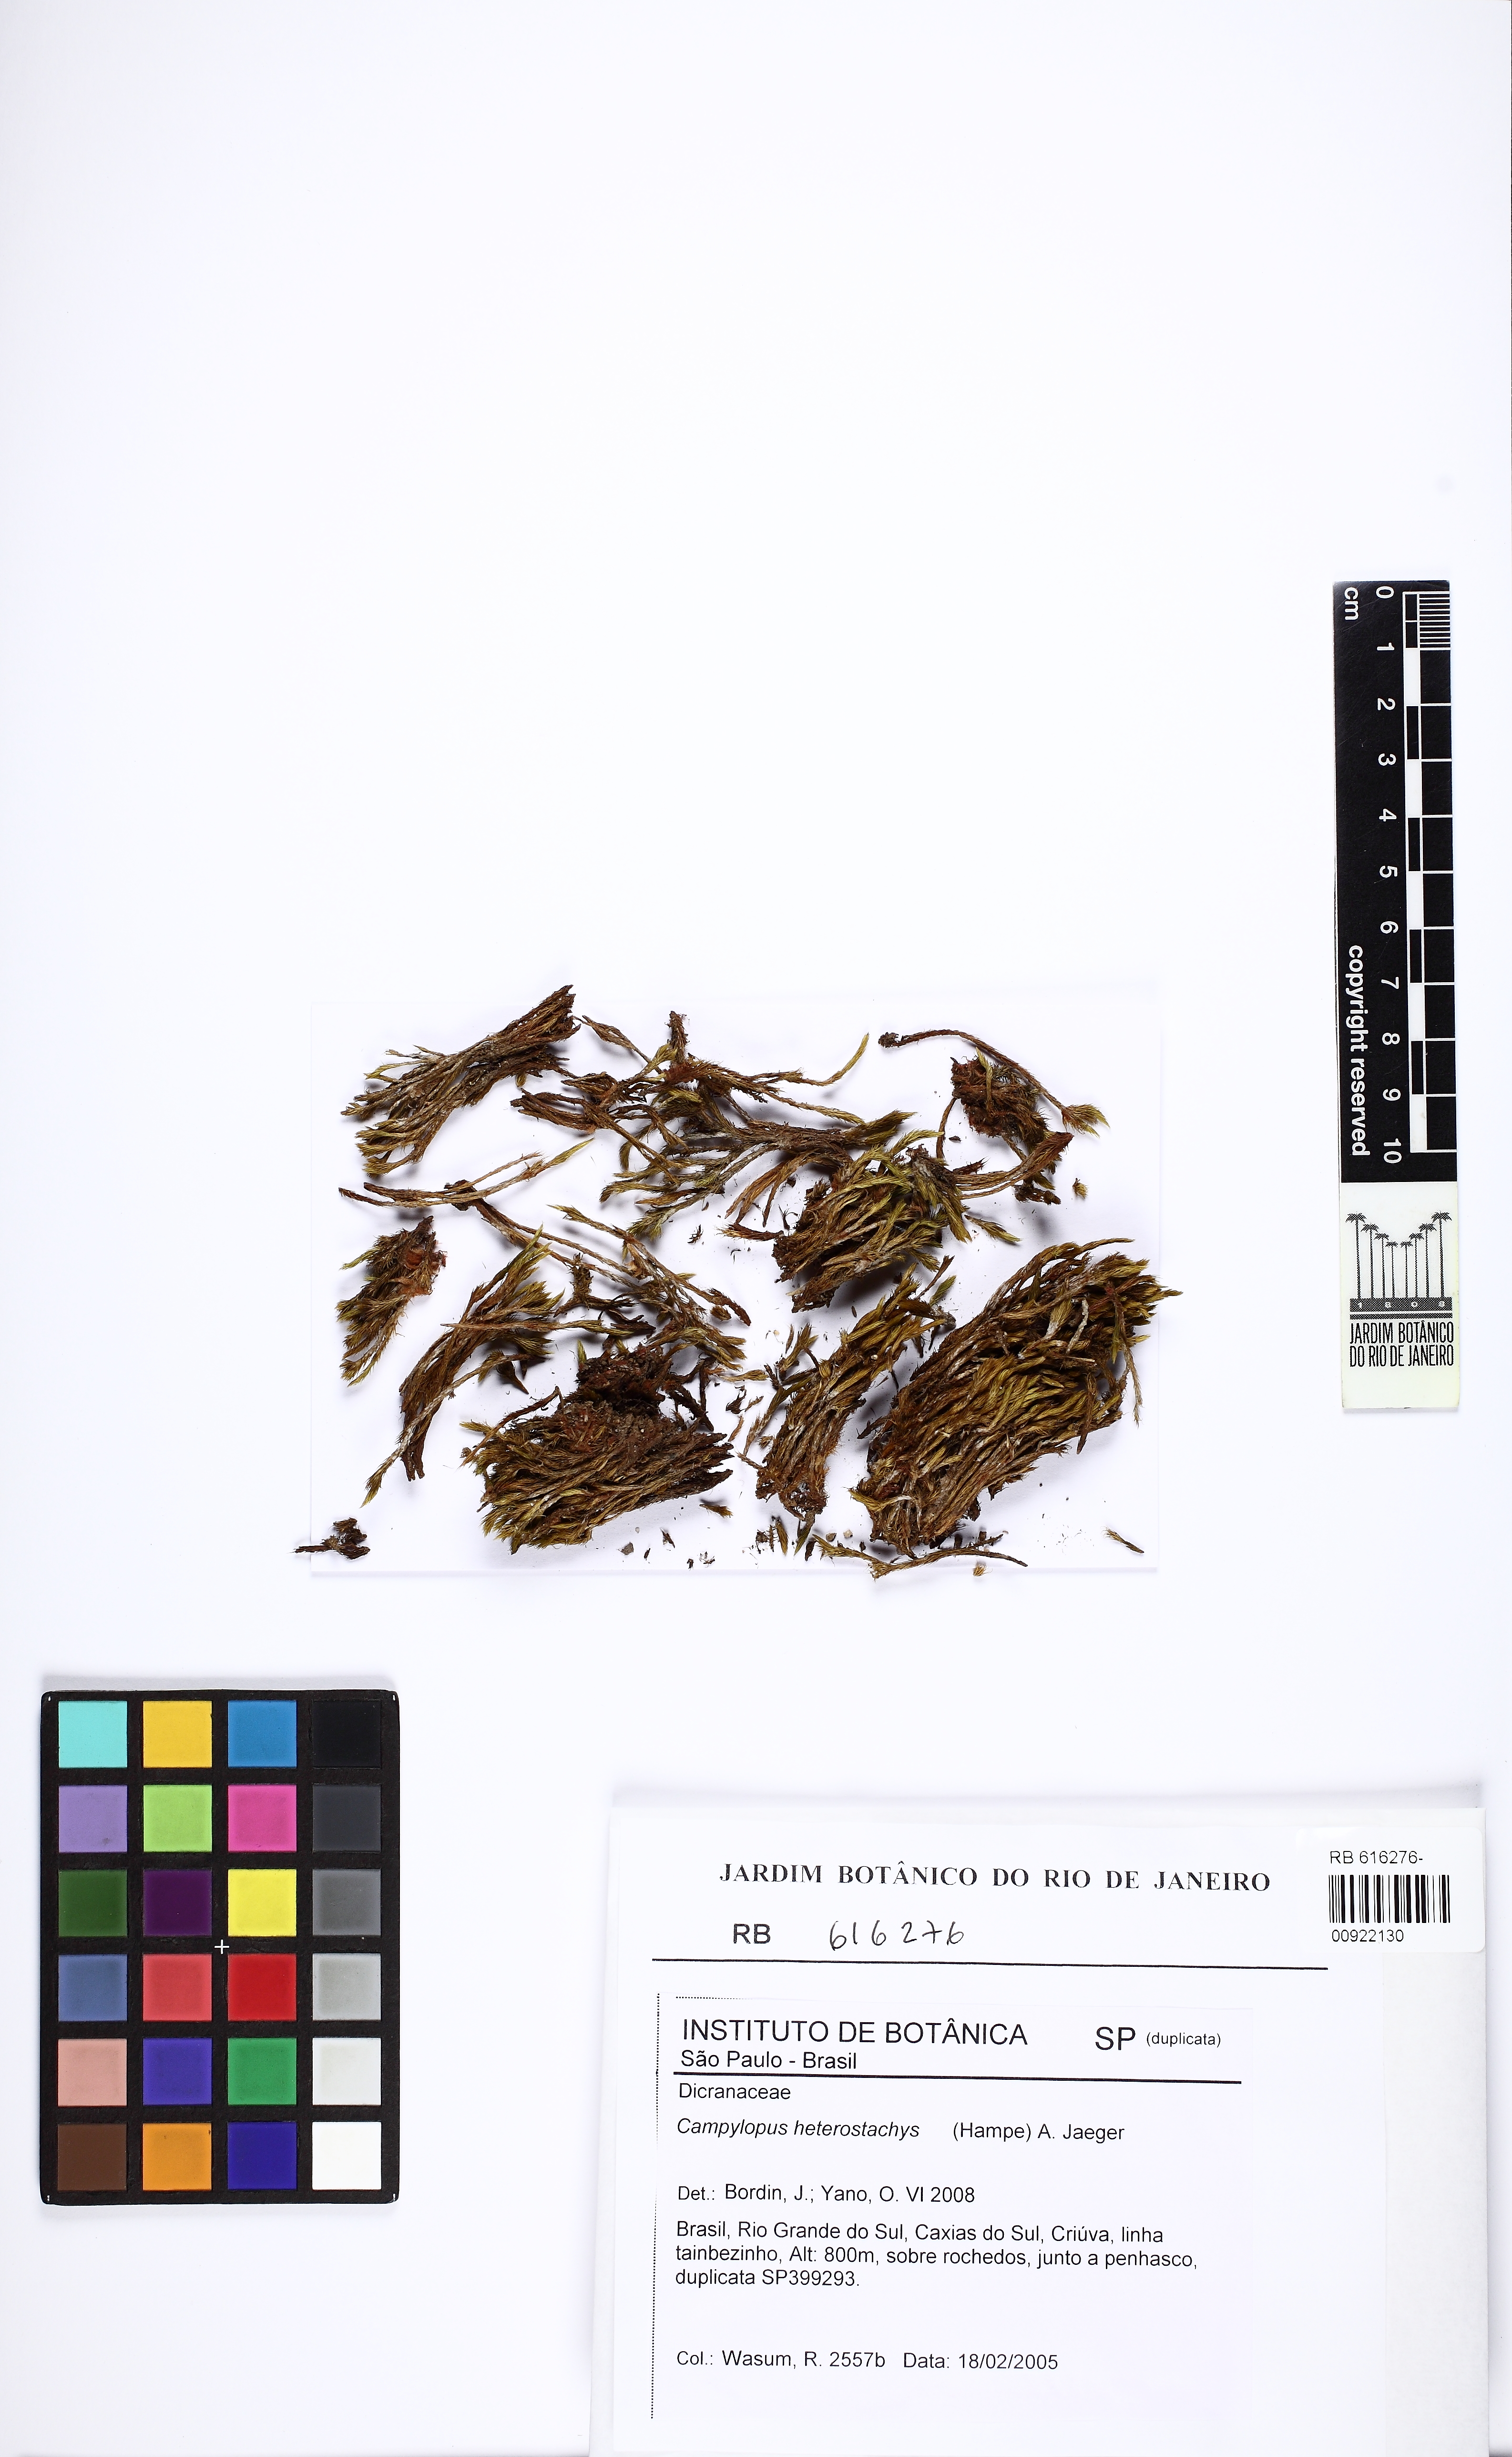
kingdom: Plantae
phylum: Bryophyta
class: Bryopsida
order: Dicranales
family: Leucobryaceae
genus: Campylopus
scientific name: Campylopus heterostachys
